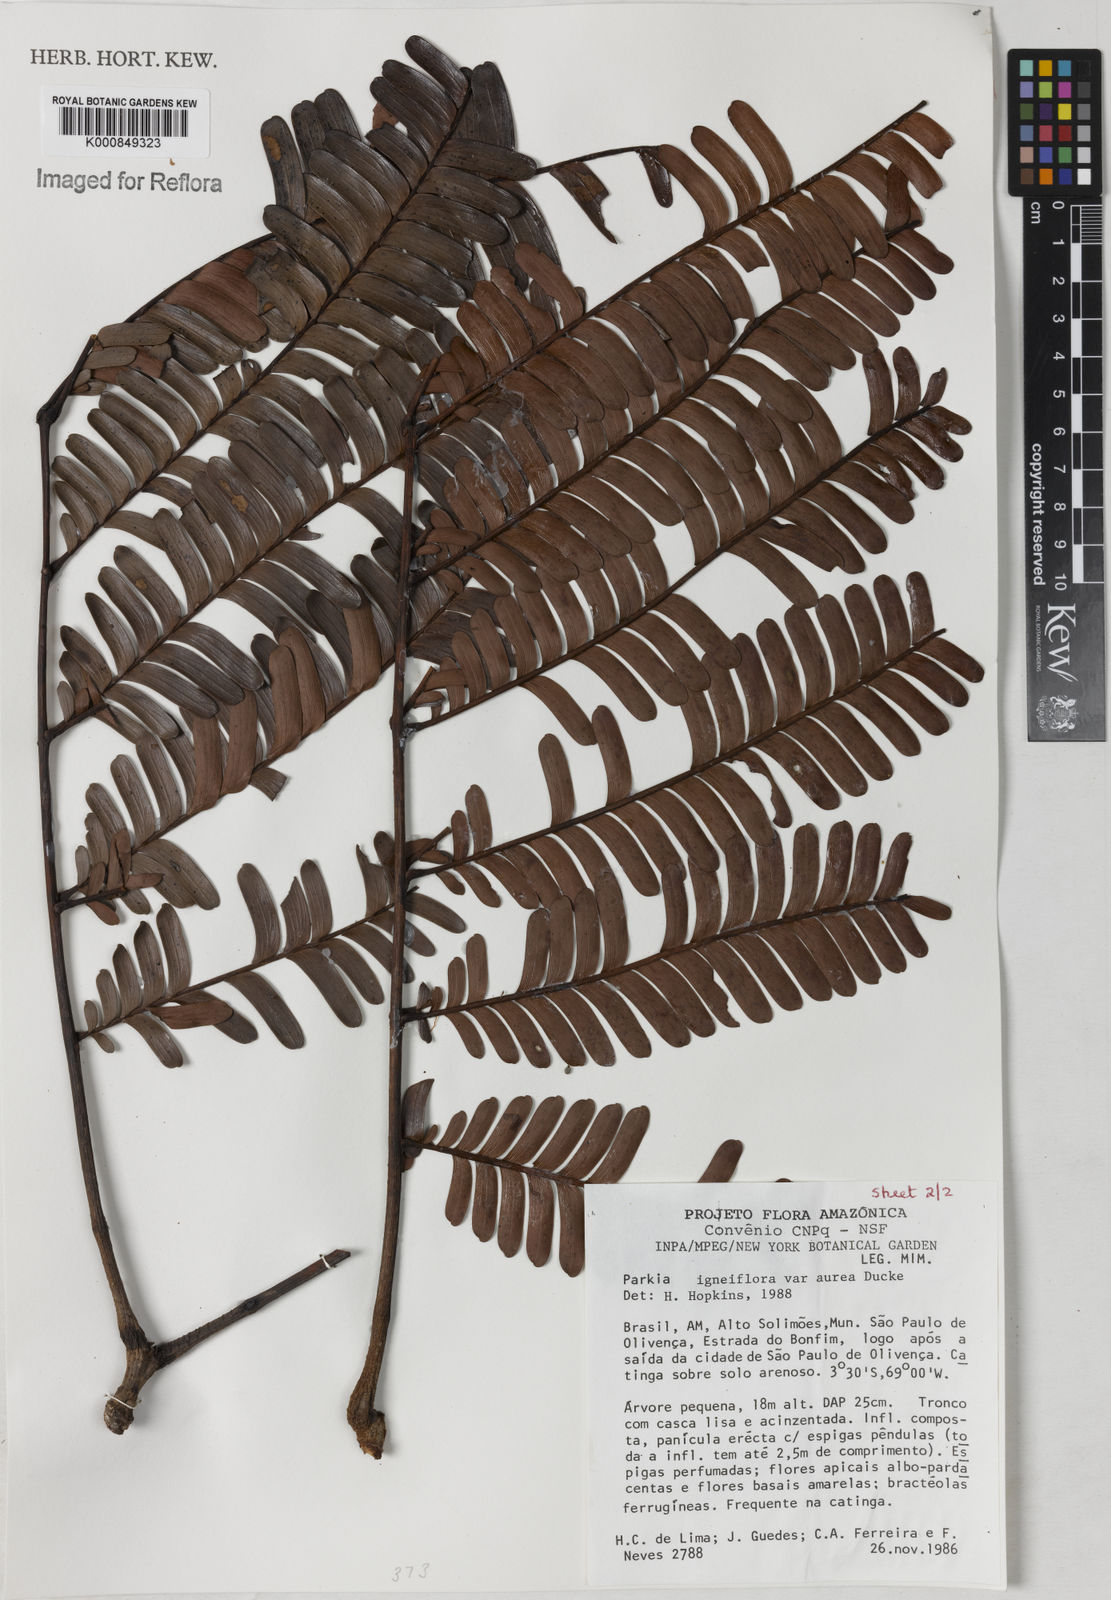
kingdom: Plantae
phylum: Tracheophyta
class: Magnoliopsida
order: Fabales
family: Fabaceae
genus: Parkia
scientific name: Parkia igneiflora
